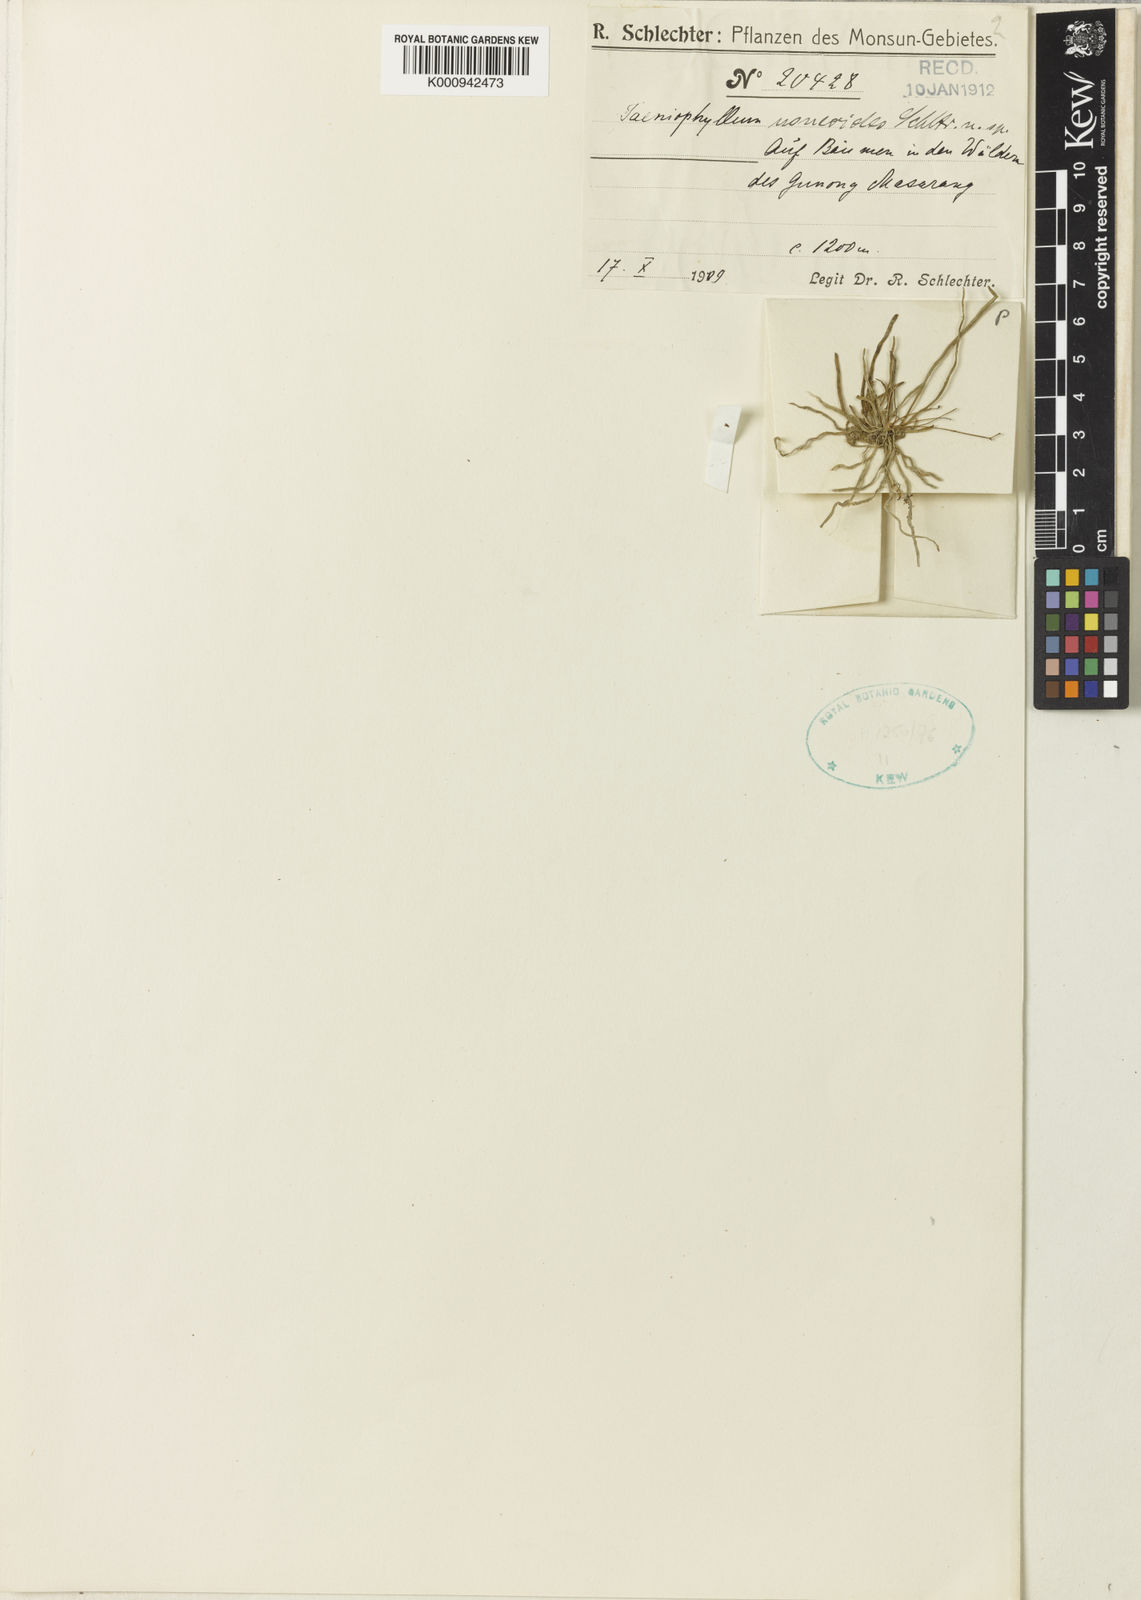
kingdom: Plantae
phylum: Tracheophyta
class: Liliopsida
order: Asparagales
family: Orchidaceae
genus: Taeniophyllum
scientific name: Taeniophyllum glandulosum
